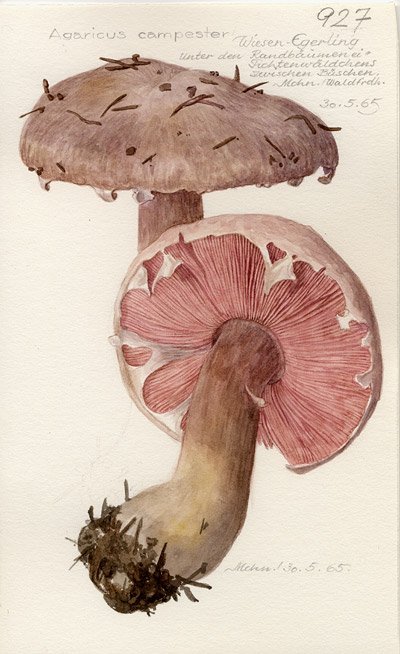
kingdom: Fungi
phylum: Basidiomycota
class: Agaricomycetes
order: Agaricales
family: Agaricaceae
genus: Agaricus
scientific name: Agaricus campestris
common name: Field mushroom
